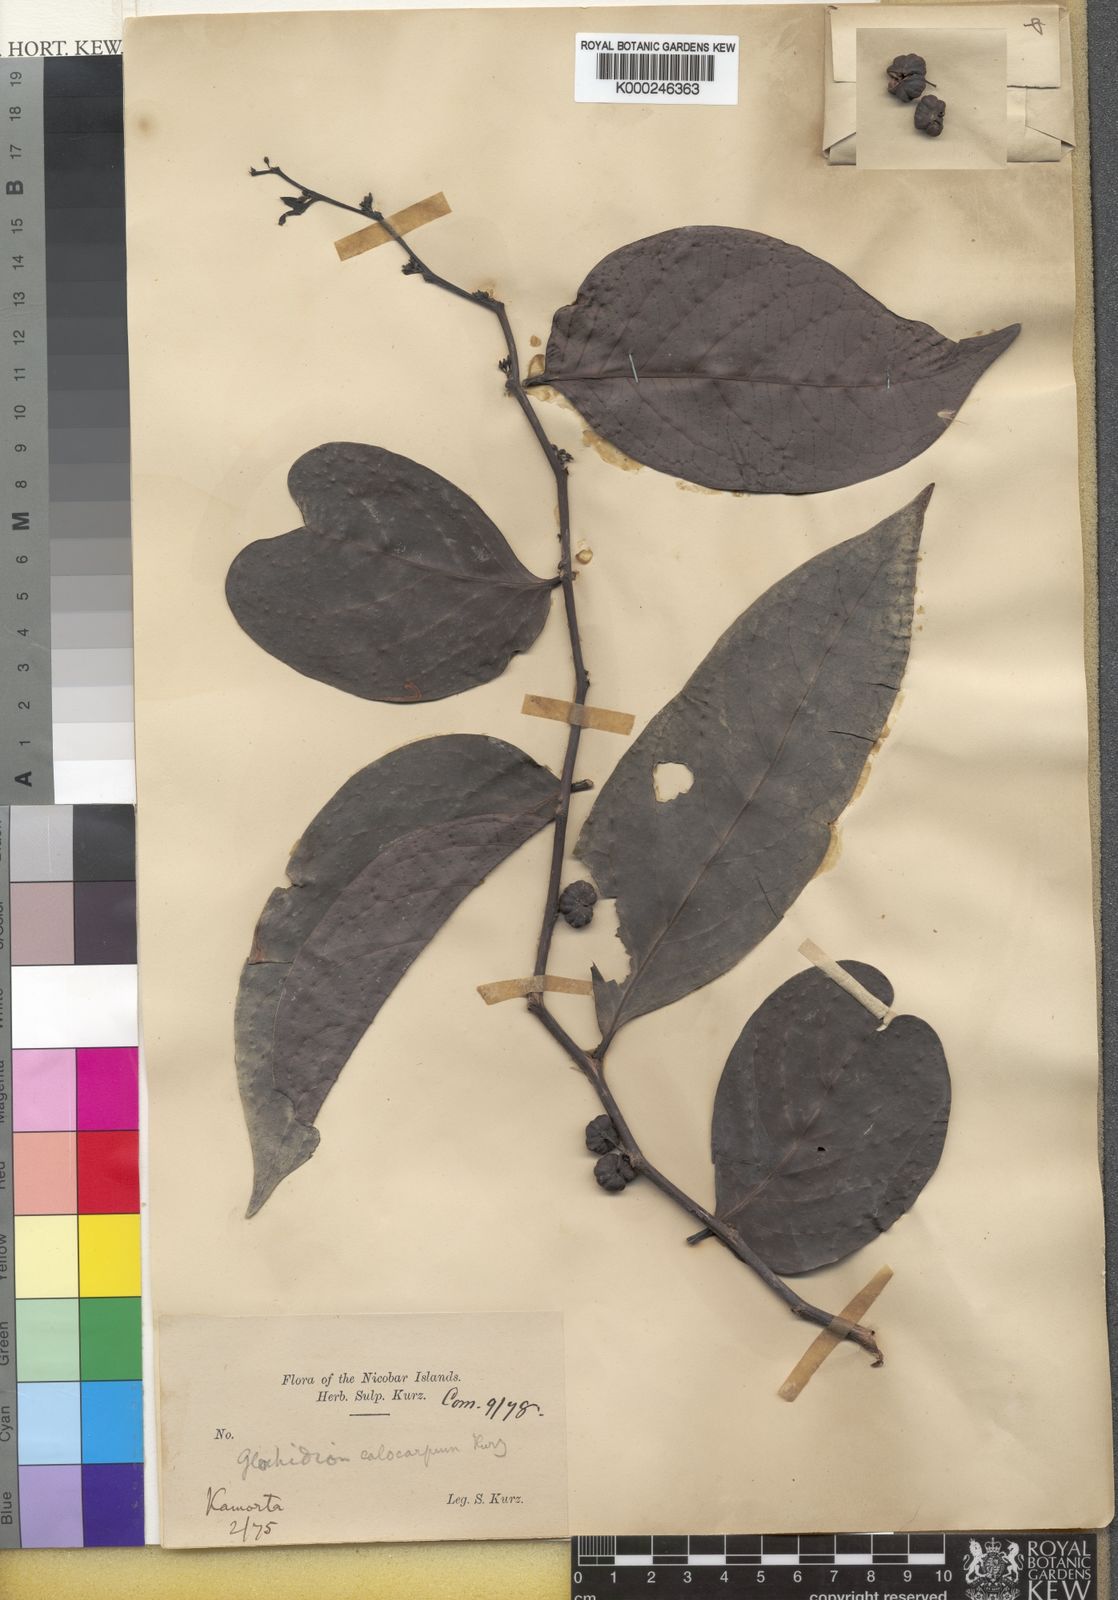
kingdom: Plantae
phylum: Tracheophyta
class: Magnoliopsida
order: Malpighiales
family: Phyllanthaceae
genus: Glochidion
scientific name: Glochidion calocarpum
